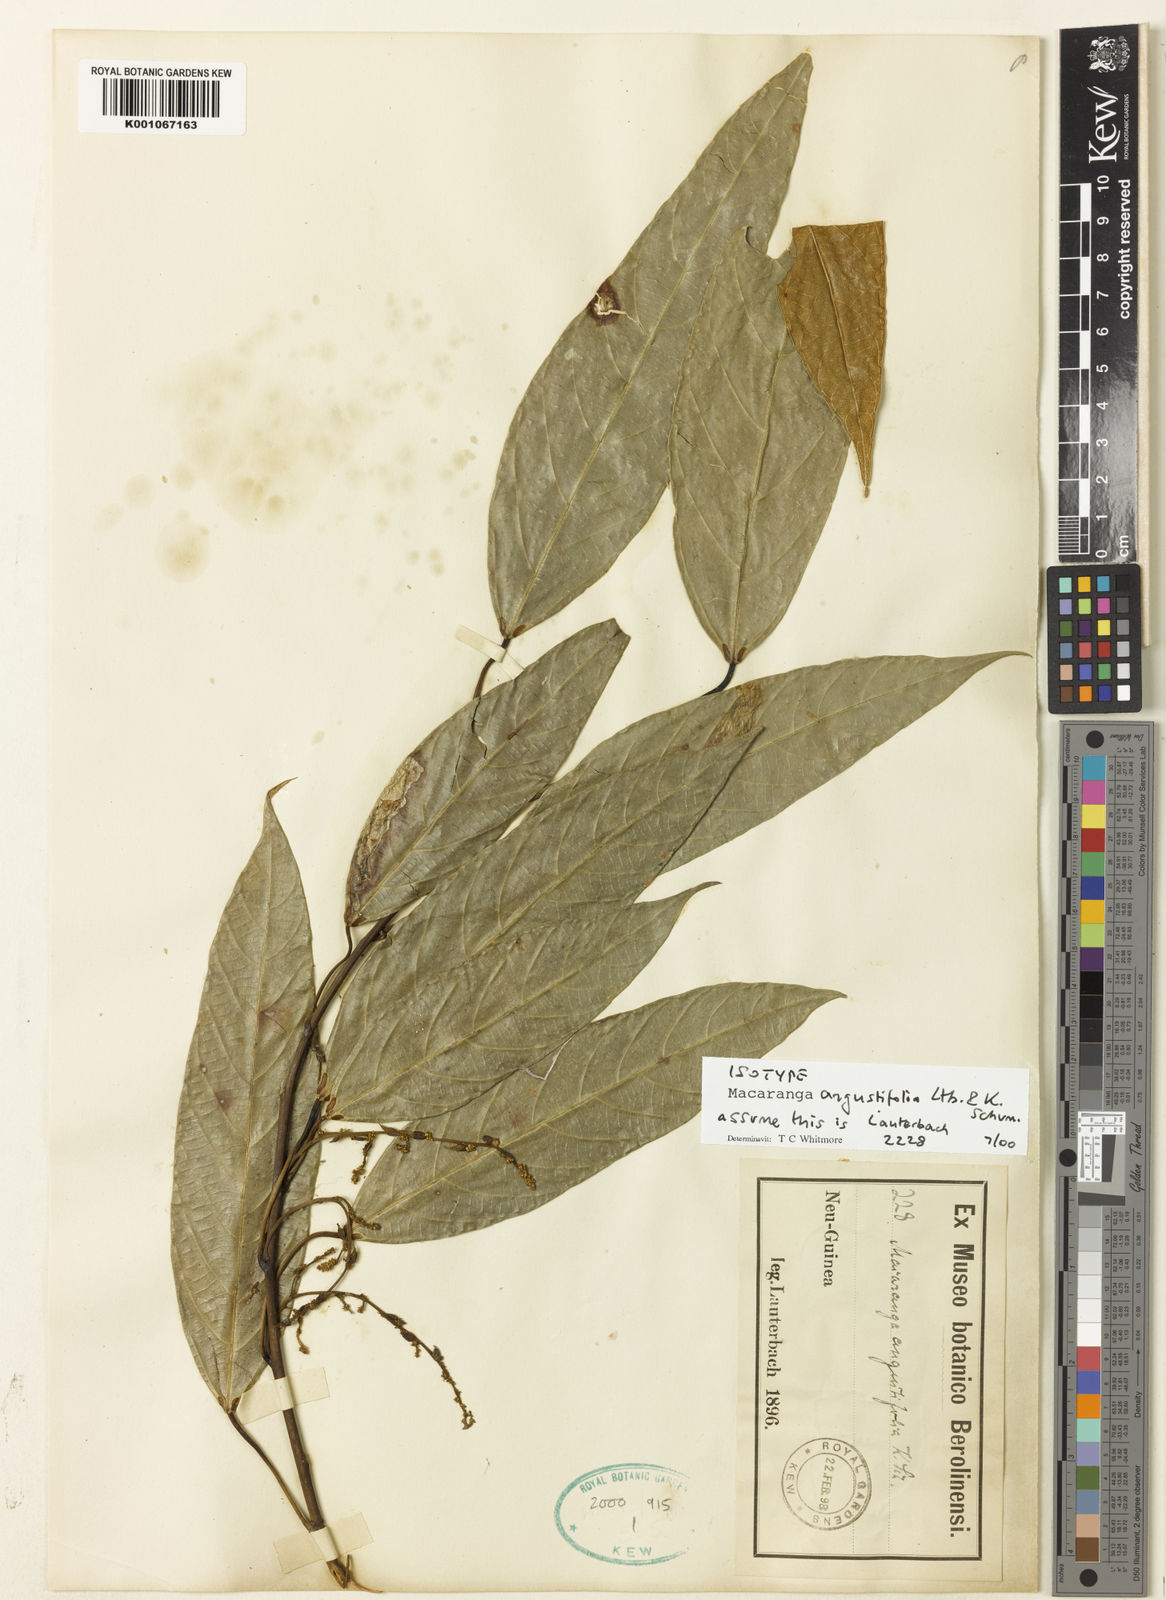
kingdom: Plantae
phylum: Tracheophyta
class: Magnoliopsida
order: Malpighiales
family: Euphorbiaceae
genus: Macaranga
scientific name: Macaranga angustifolia
